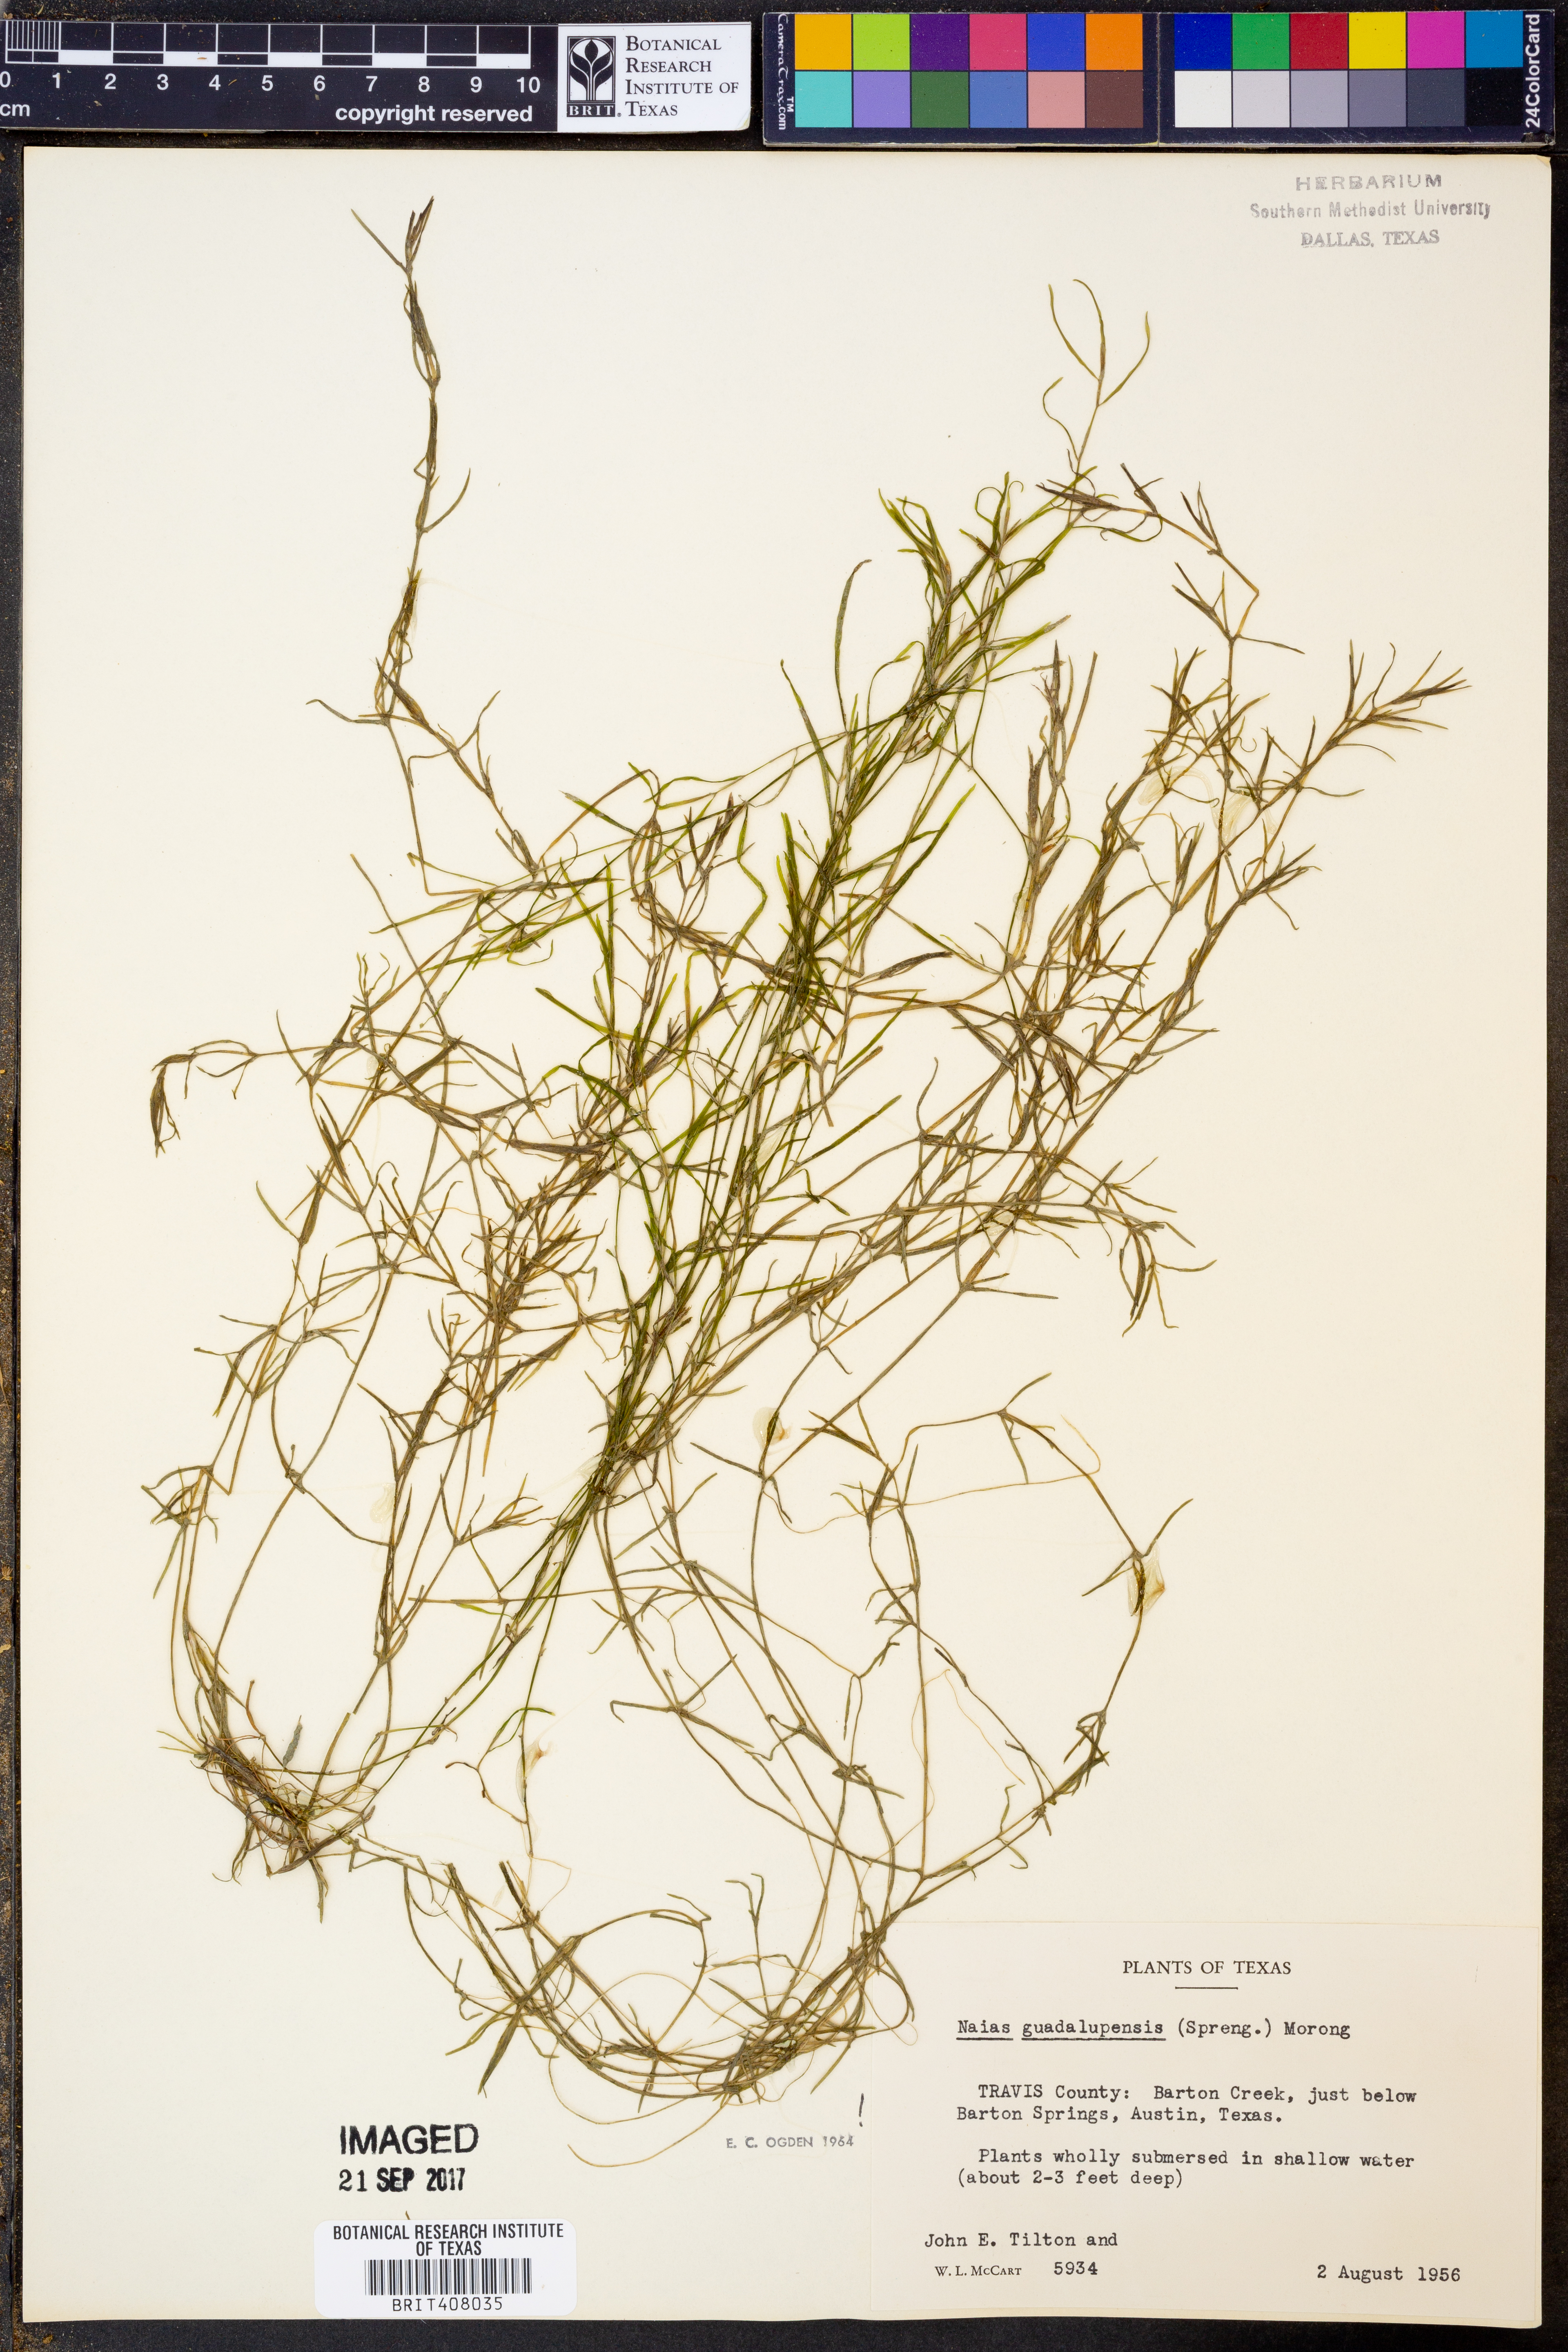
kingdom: Plantae
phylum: Tracheophyta
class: Liliopsida
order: Alismatales
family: Hydrocharitaceae
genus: Najas
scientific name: Najas guadalupensis
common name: Southern naiad
